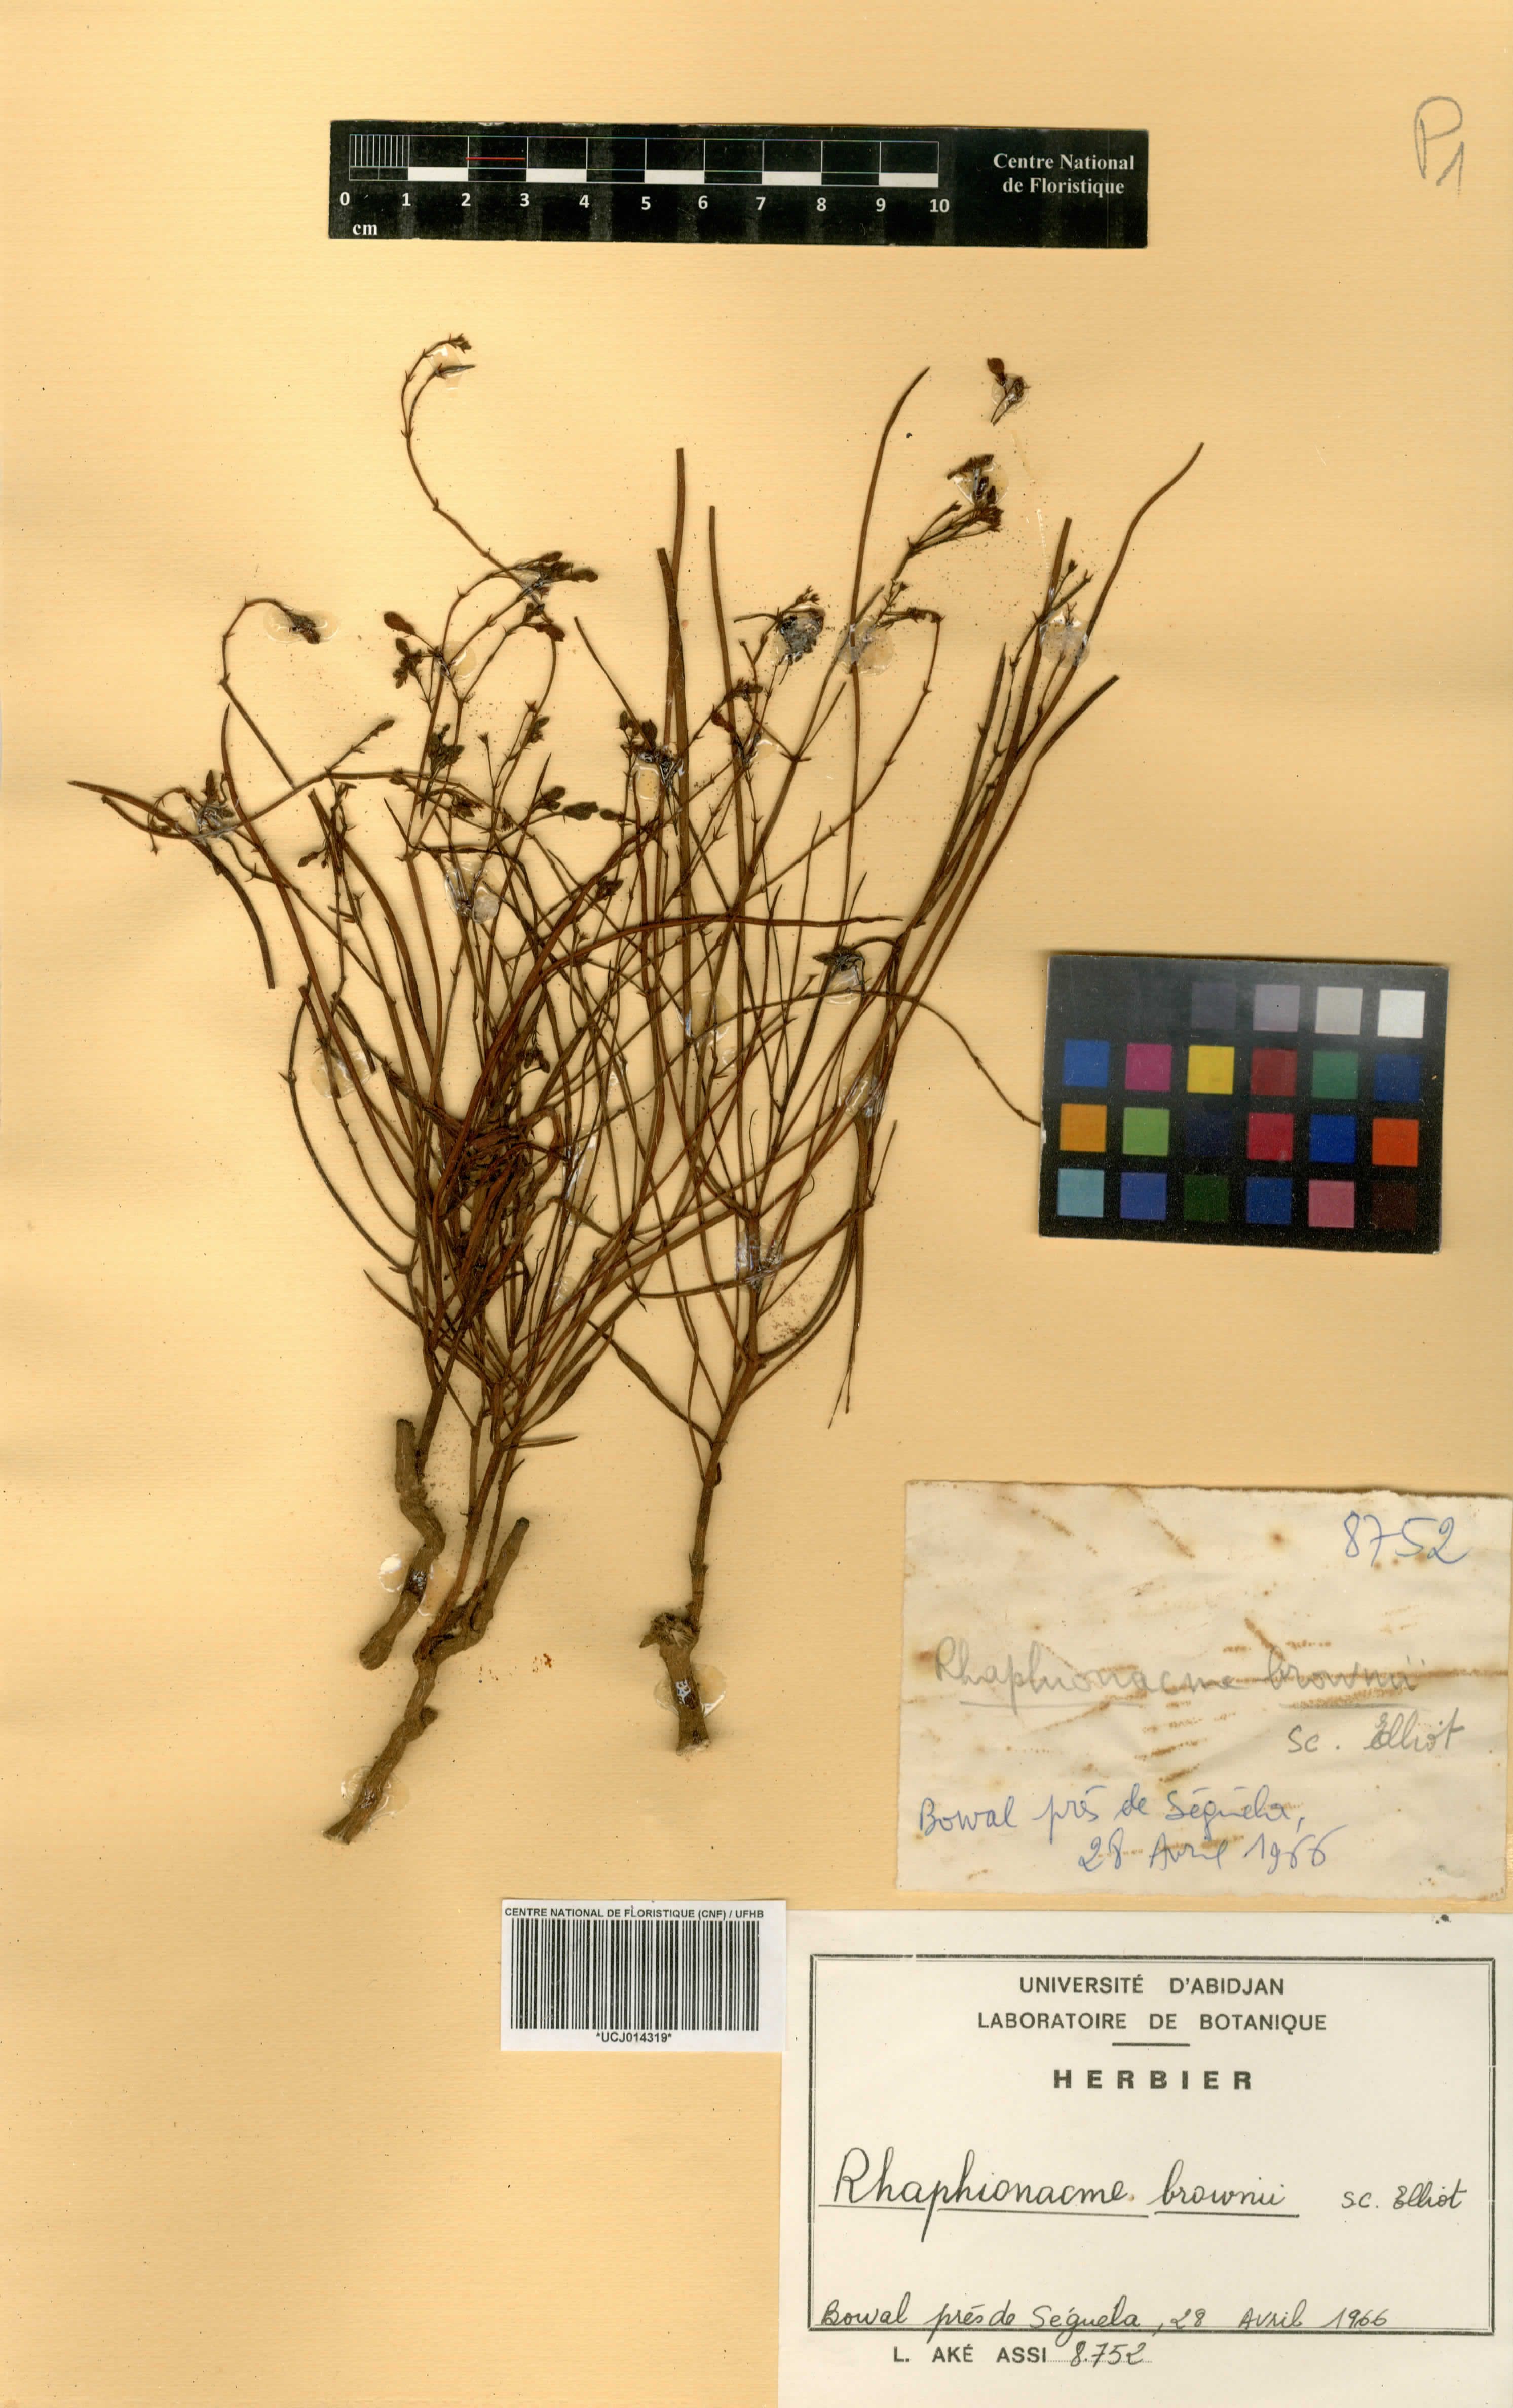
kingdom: Plantae
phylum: Tracheophyta
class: Magnoliopsida
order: Gentianales
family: Apocynaceae
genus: Raphionacme
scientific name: Raphionacme brownii
